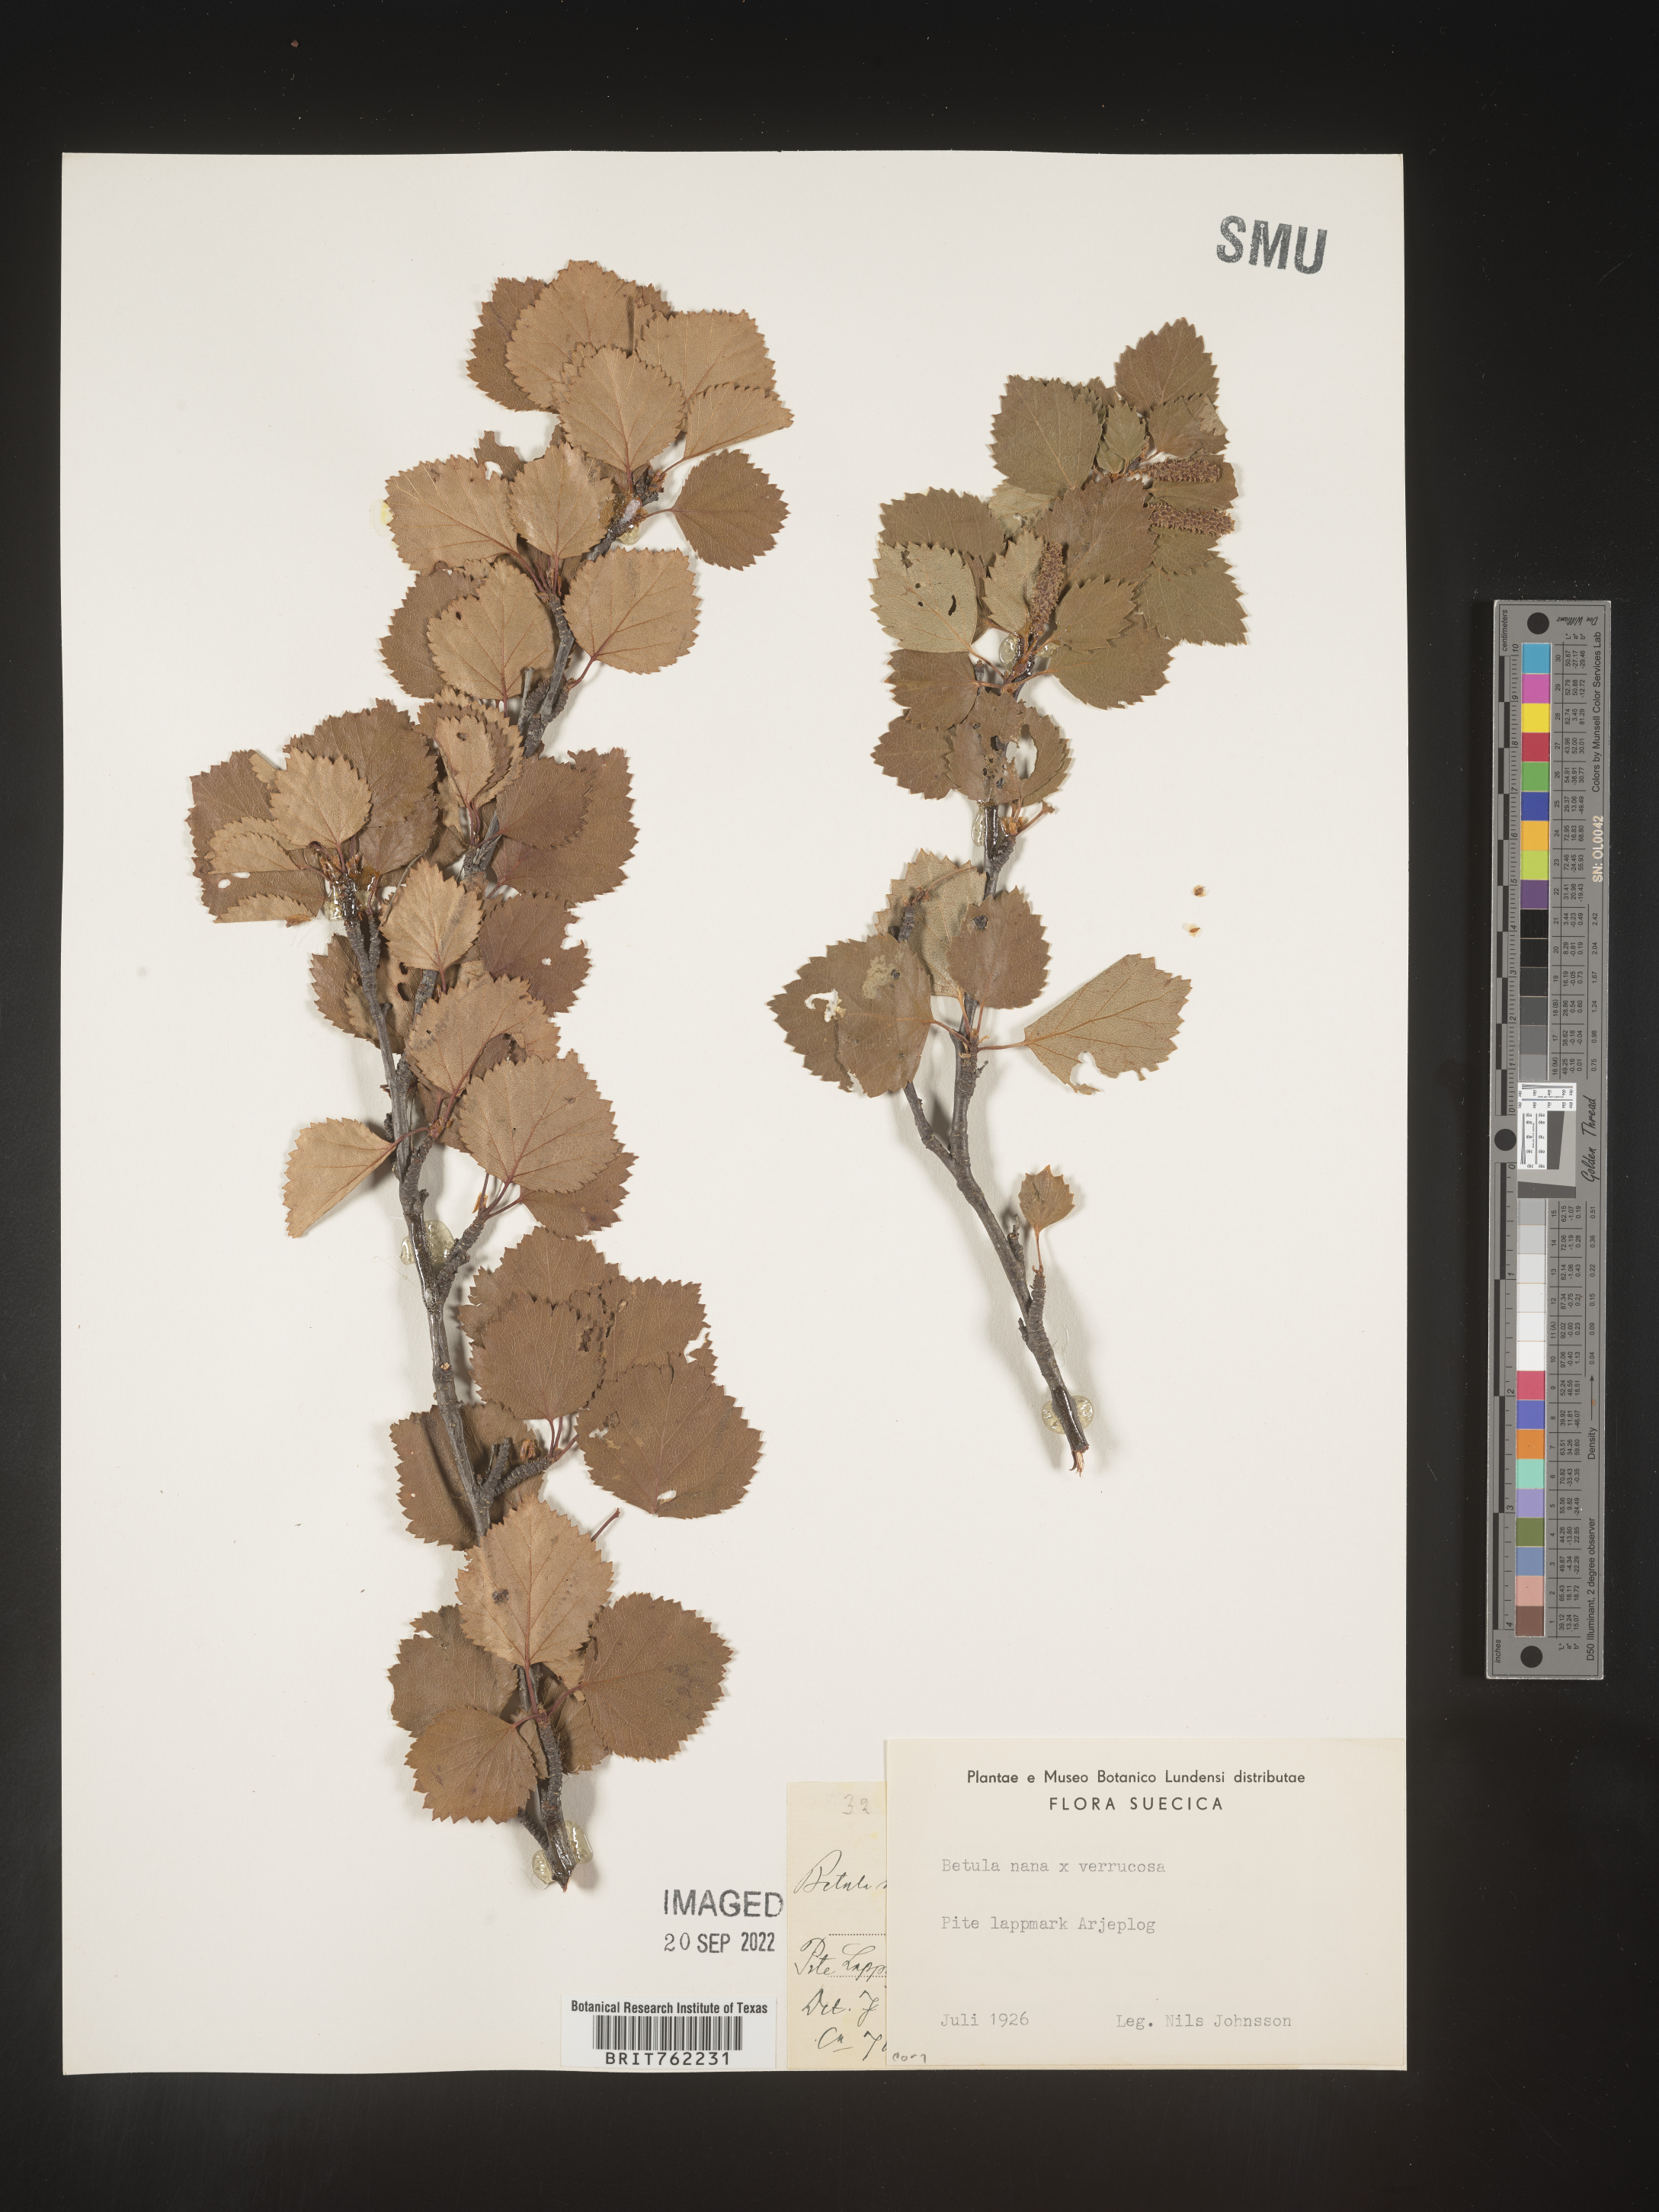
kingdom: Plantae
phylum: Tracheophyta
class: Magnoliopsida
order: Fagales
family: Betulaceae
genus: Betula
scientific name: Betula
